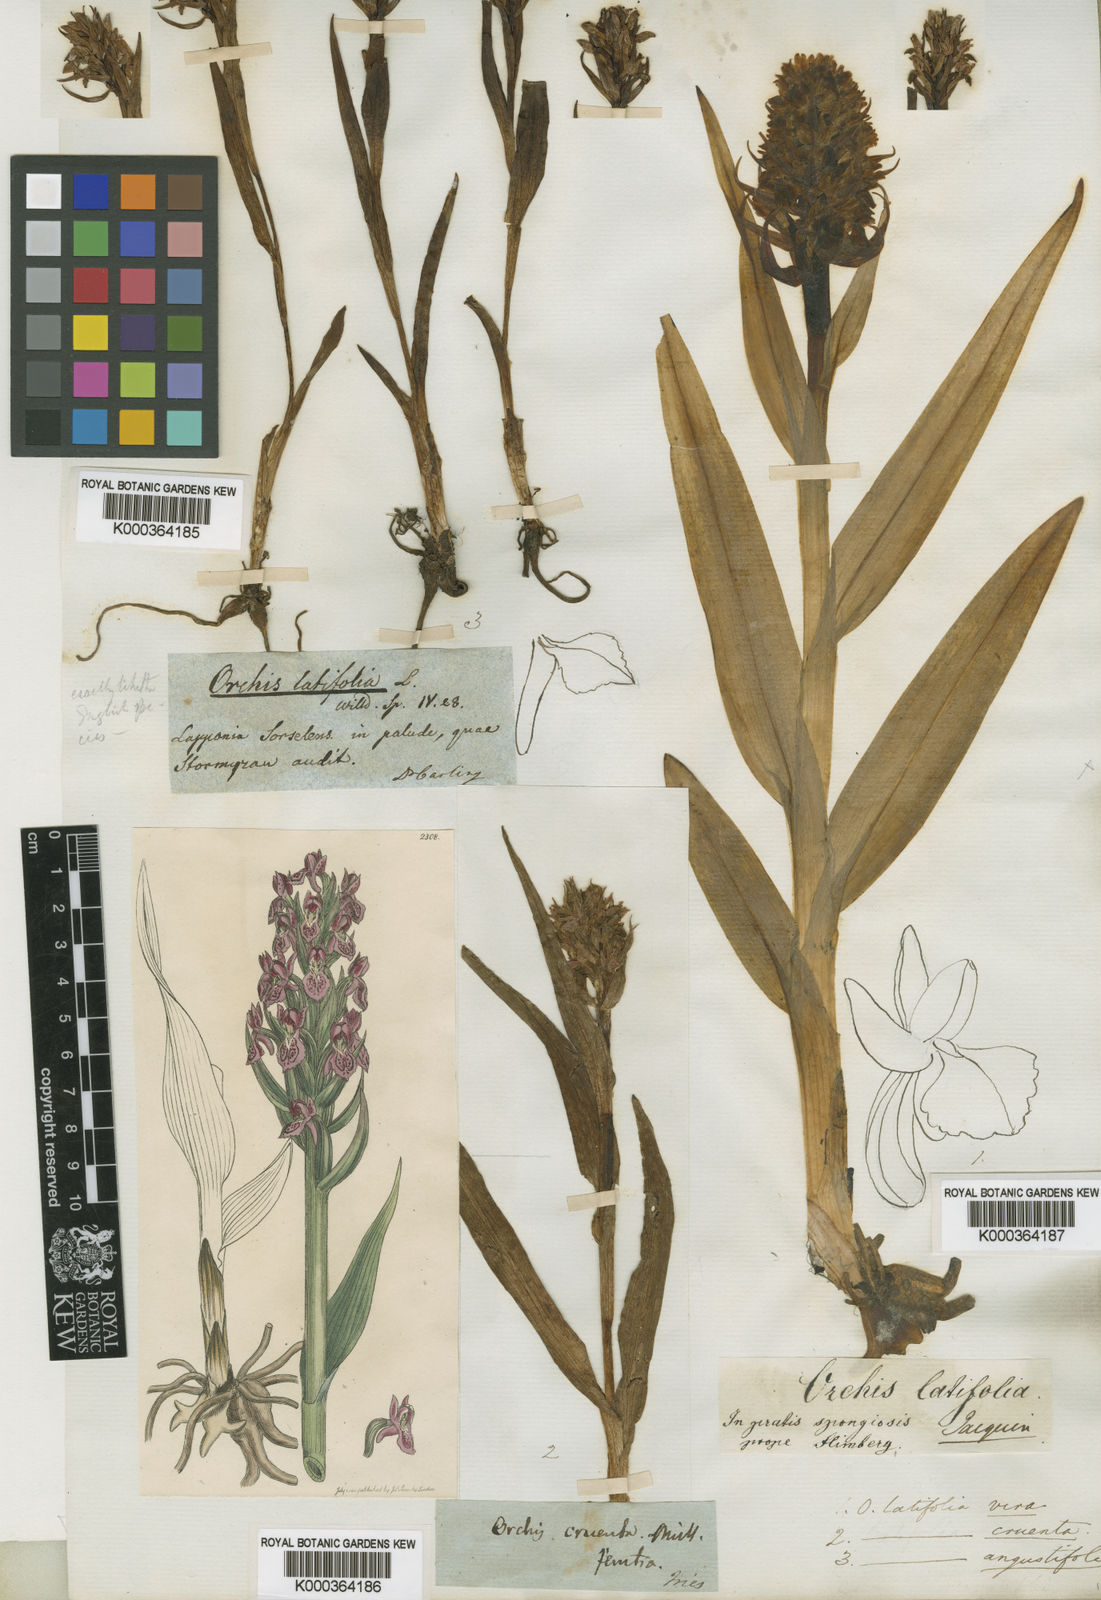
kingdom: Plantae
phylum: Tracheophyta
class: Liliopsida
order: Asparagales
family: Orchidaceae
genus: Dactylorhiza
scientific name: Dactylorhiza
